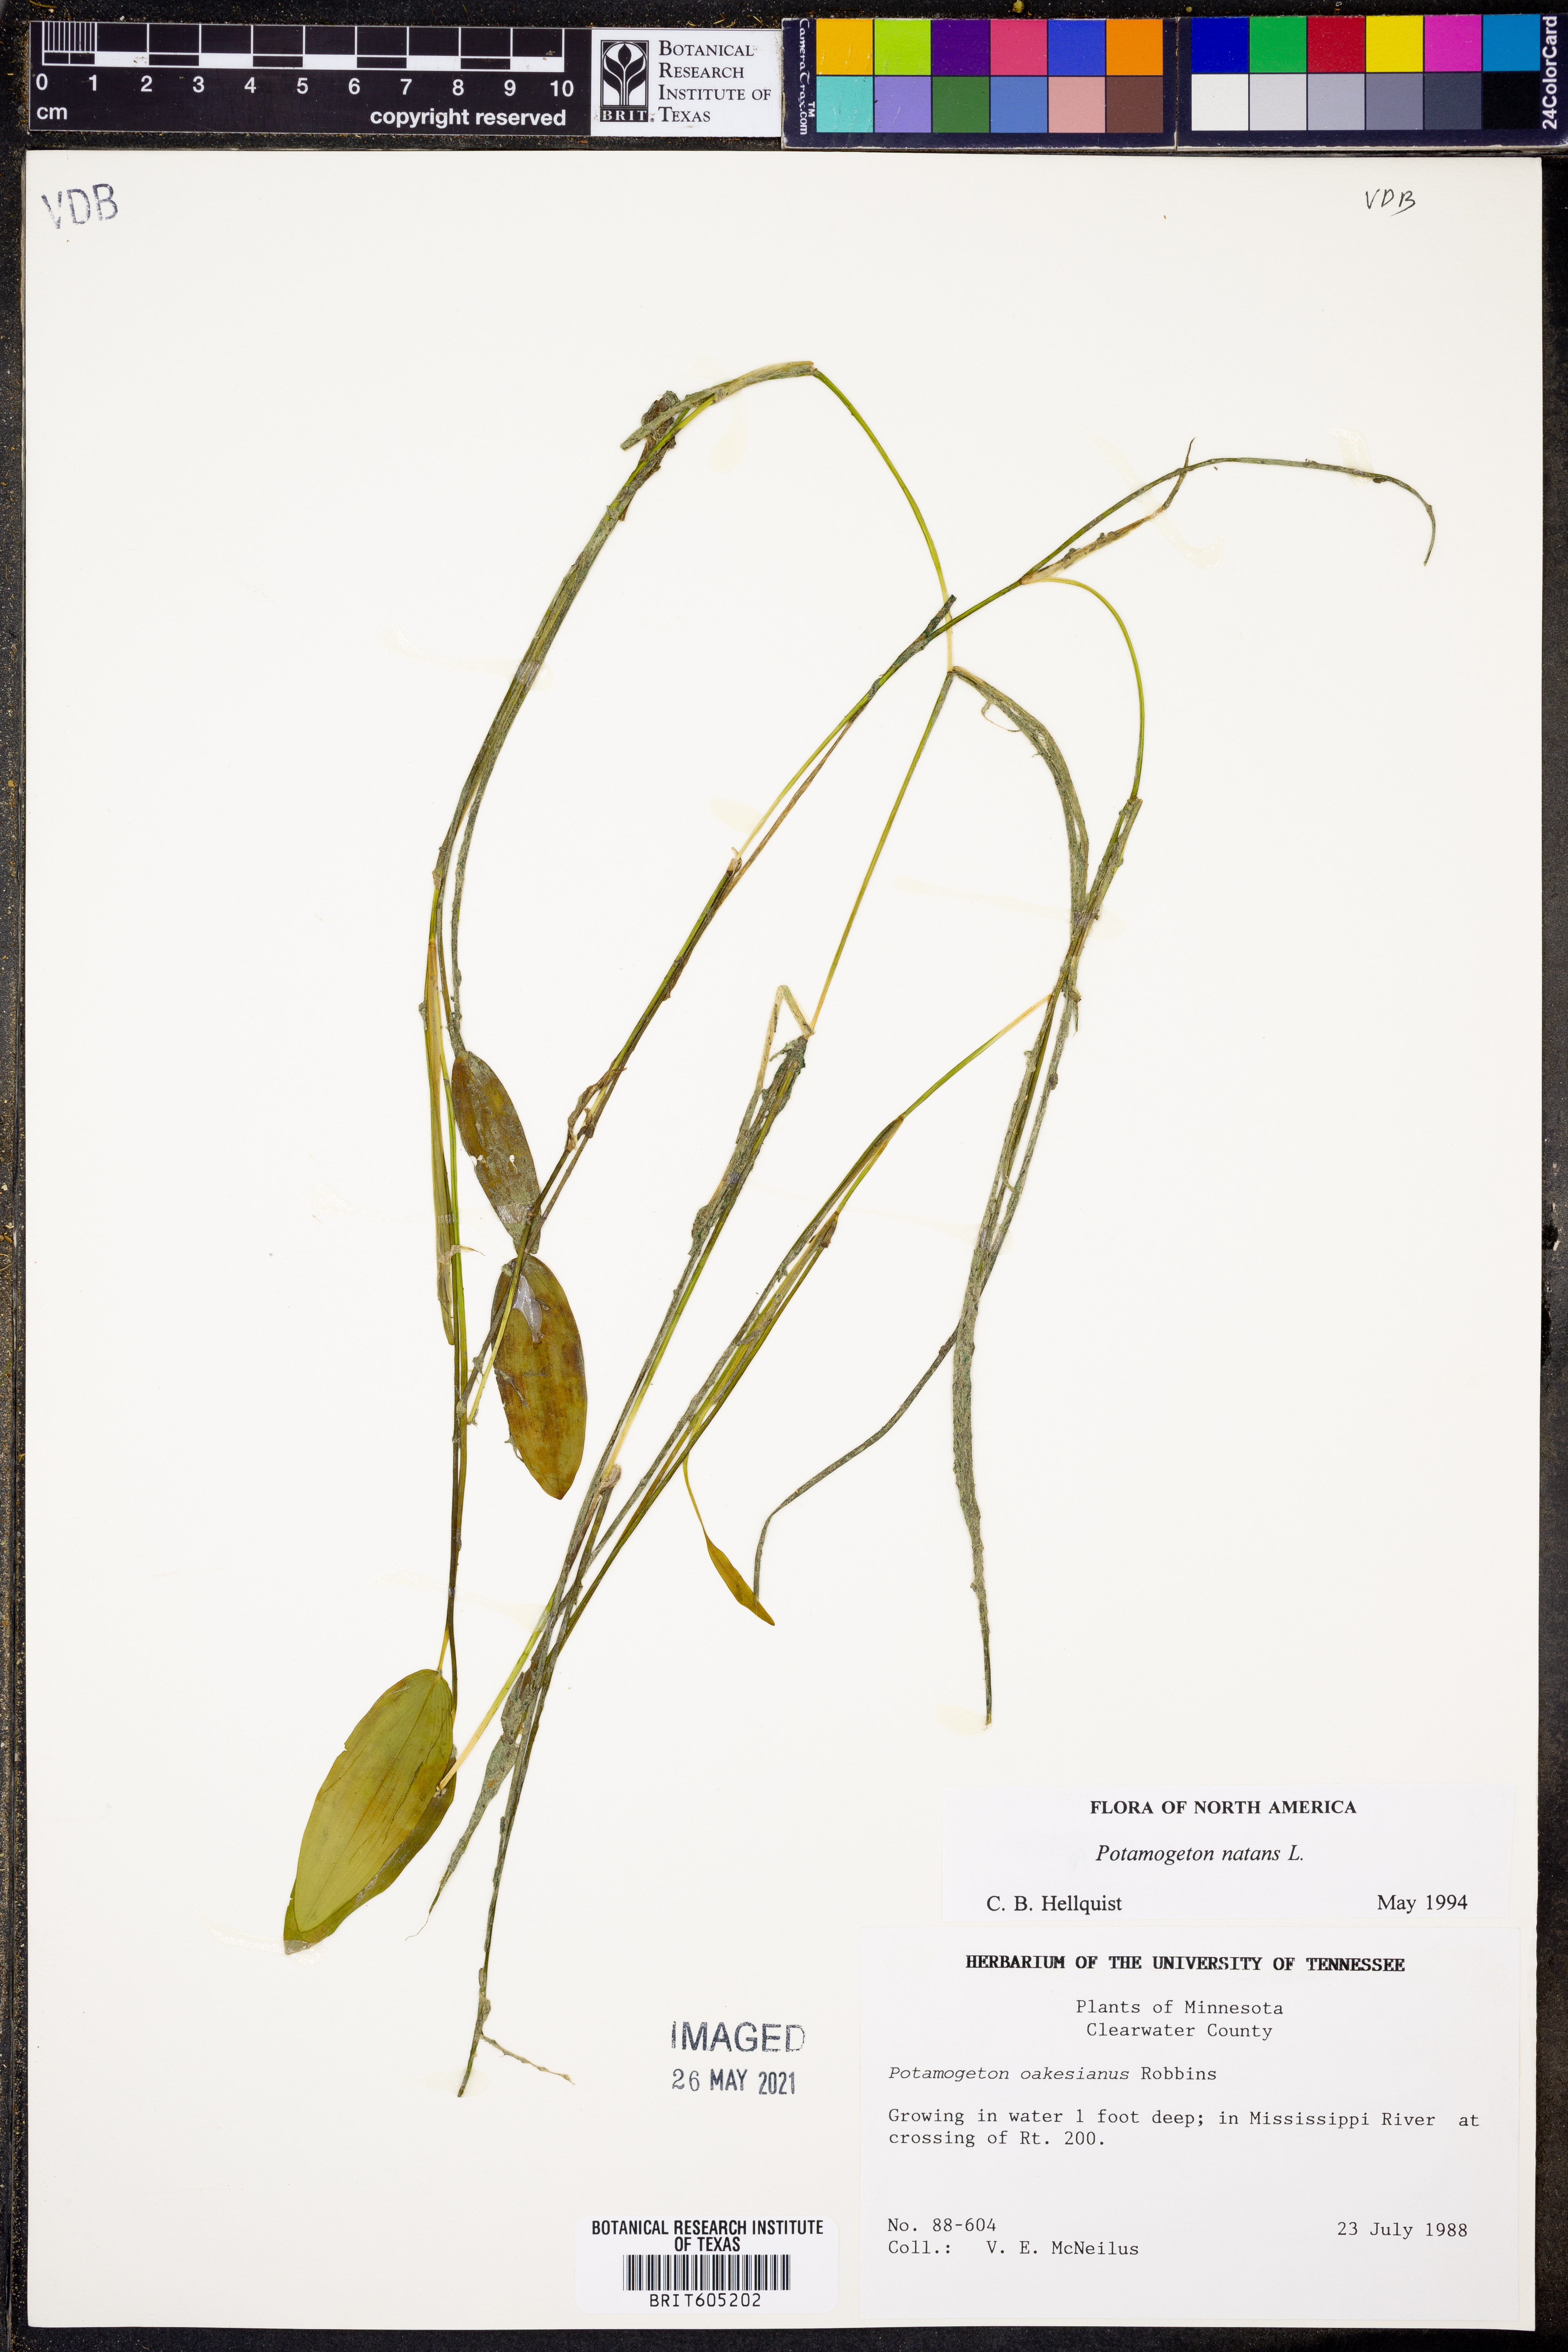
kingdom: Plantae
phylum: Tracheophyta
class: Liliopsida
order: Alismatales
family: Potamogetonaceae
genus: Potamogeton
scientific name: Potamogeton natans
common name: Broad-leaved pondweed
